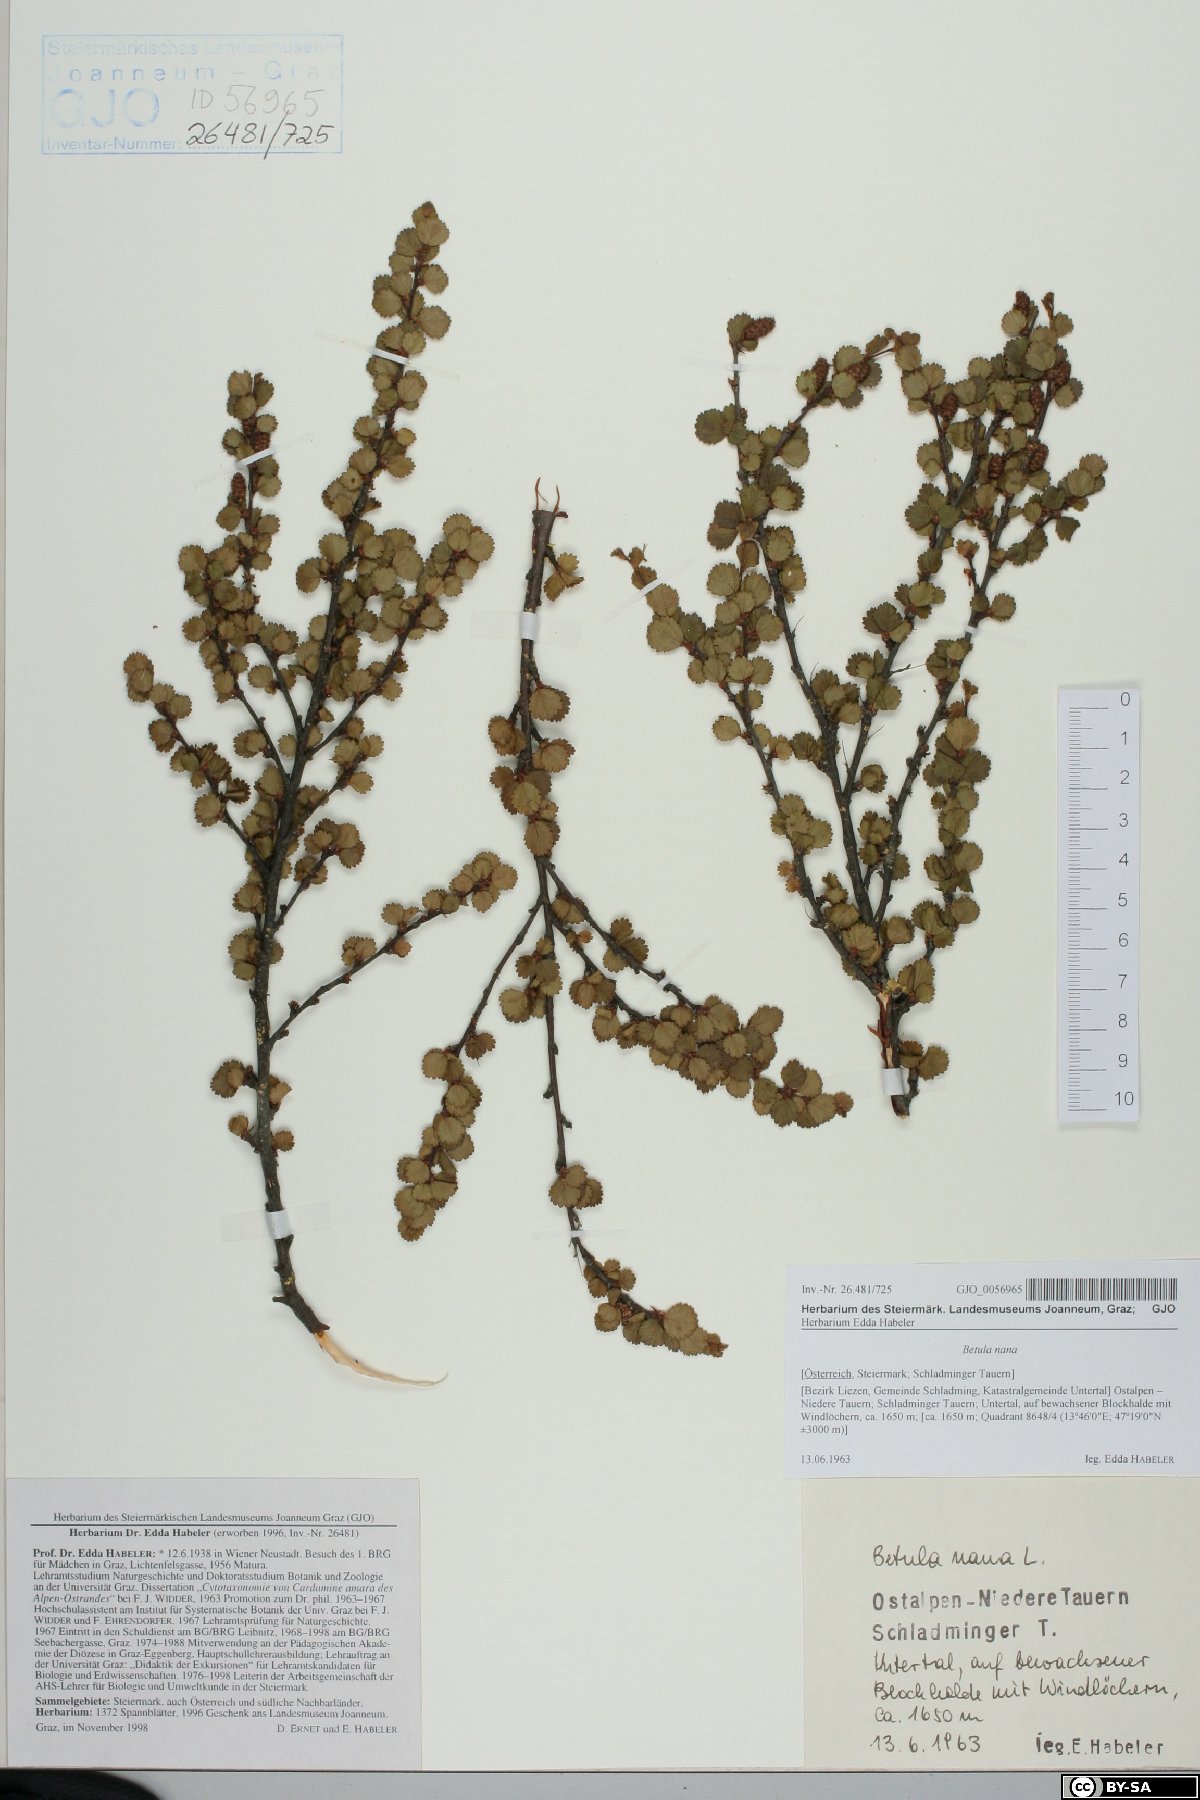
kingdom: Plantae
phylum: Tracheophyta
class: Magnoliopsida
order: Fagales
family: Betulaceae
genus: Betula
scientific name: Betula nana
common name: Arctic dwarf birch
